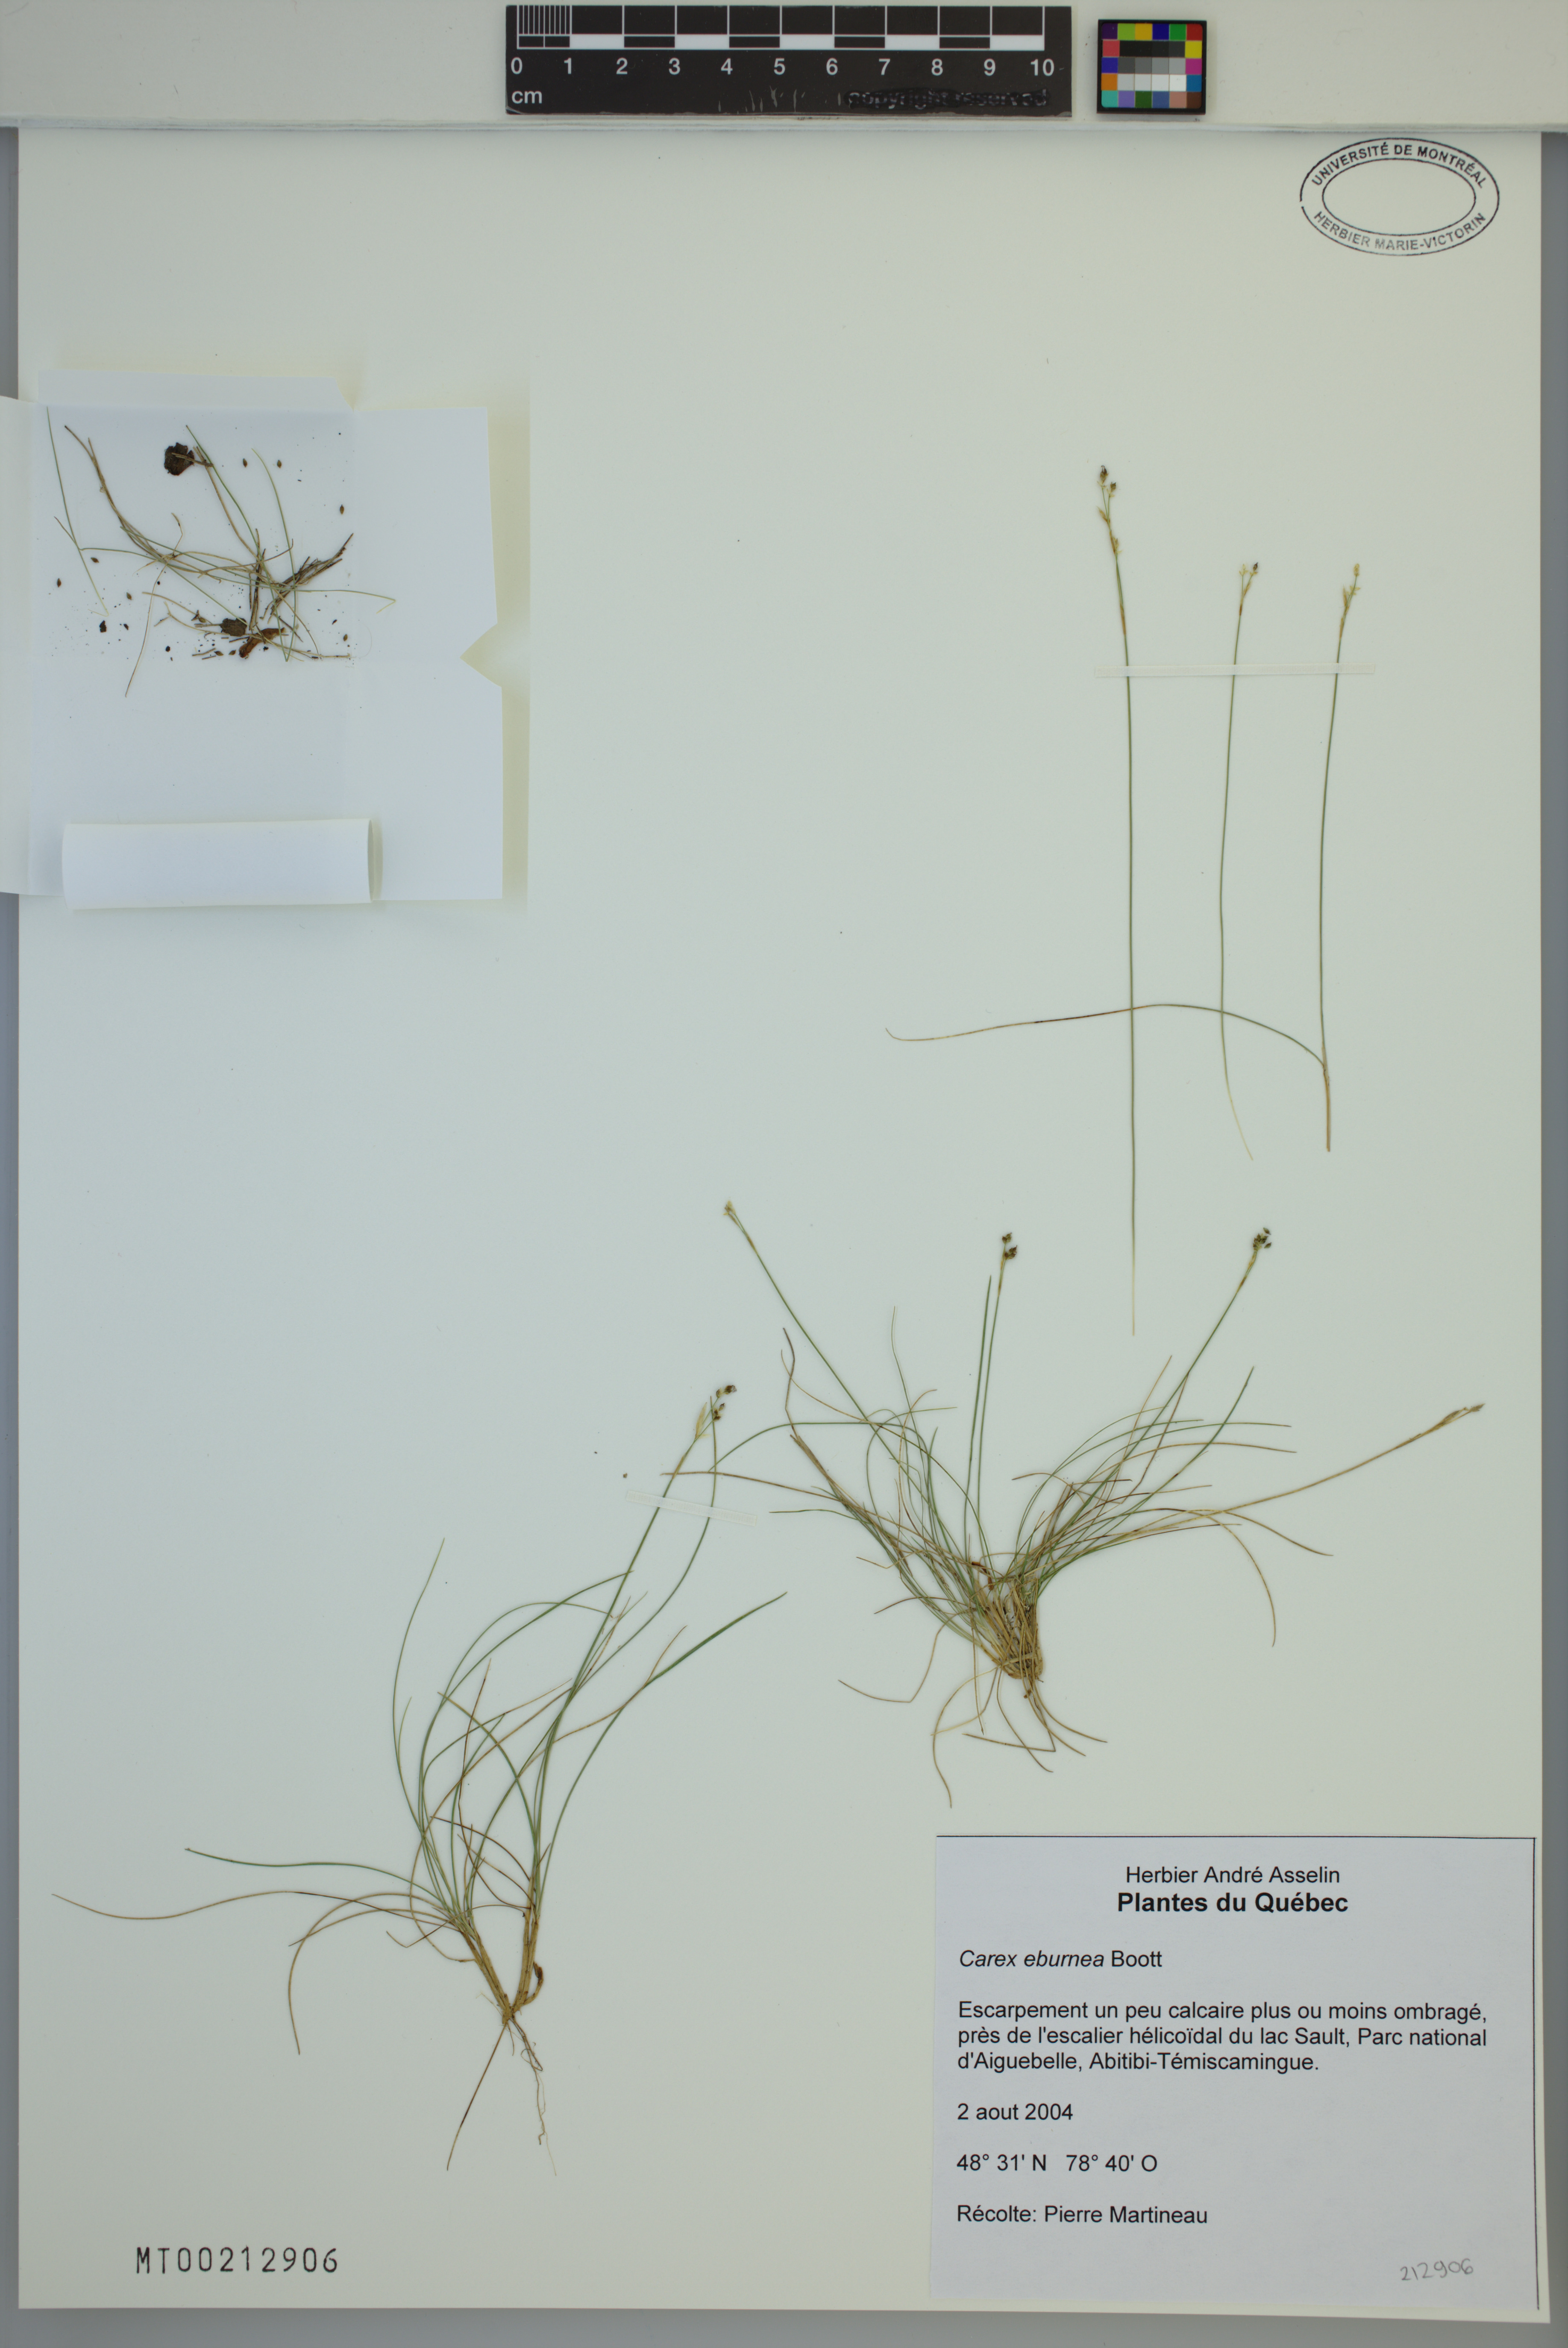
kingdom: Plantae
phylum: Tracheophyta
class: Liliopsida
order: Poales
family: Cyperaceae
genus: Carex
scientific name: Carex eburnea
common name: Bristle-leaved sedge
